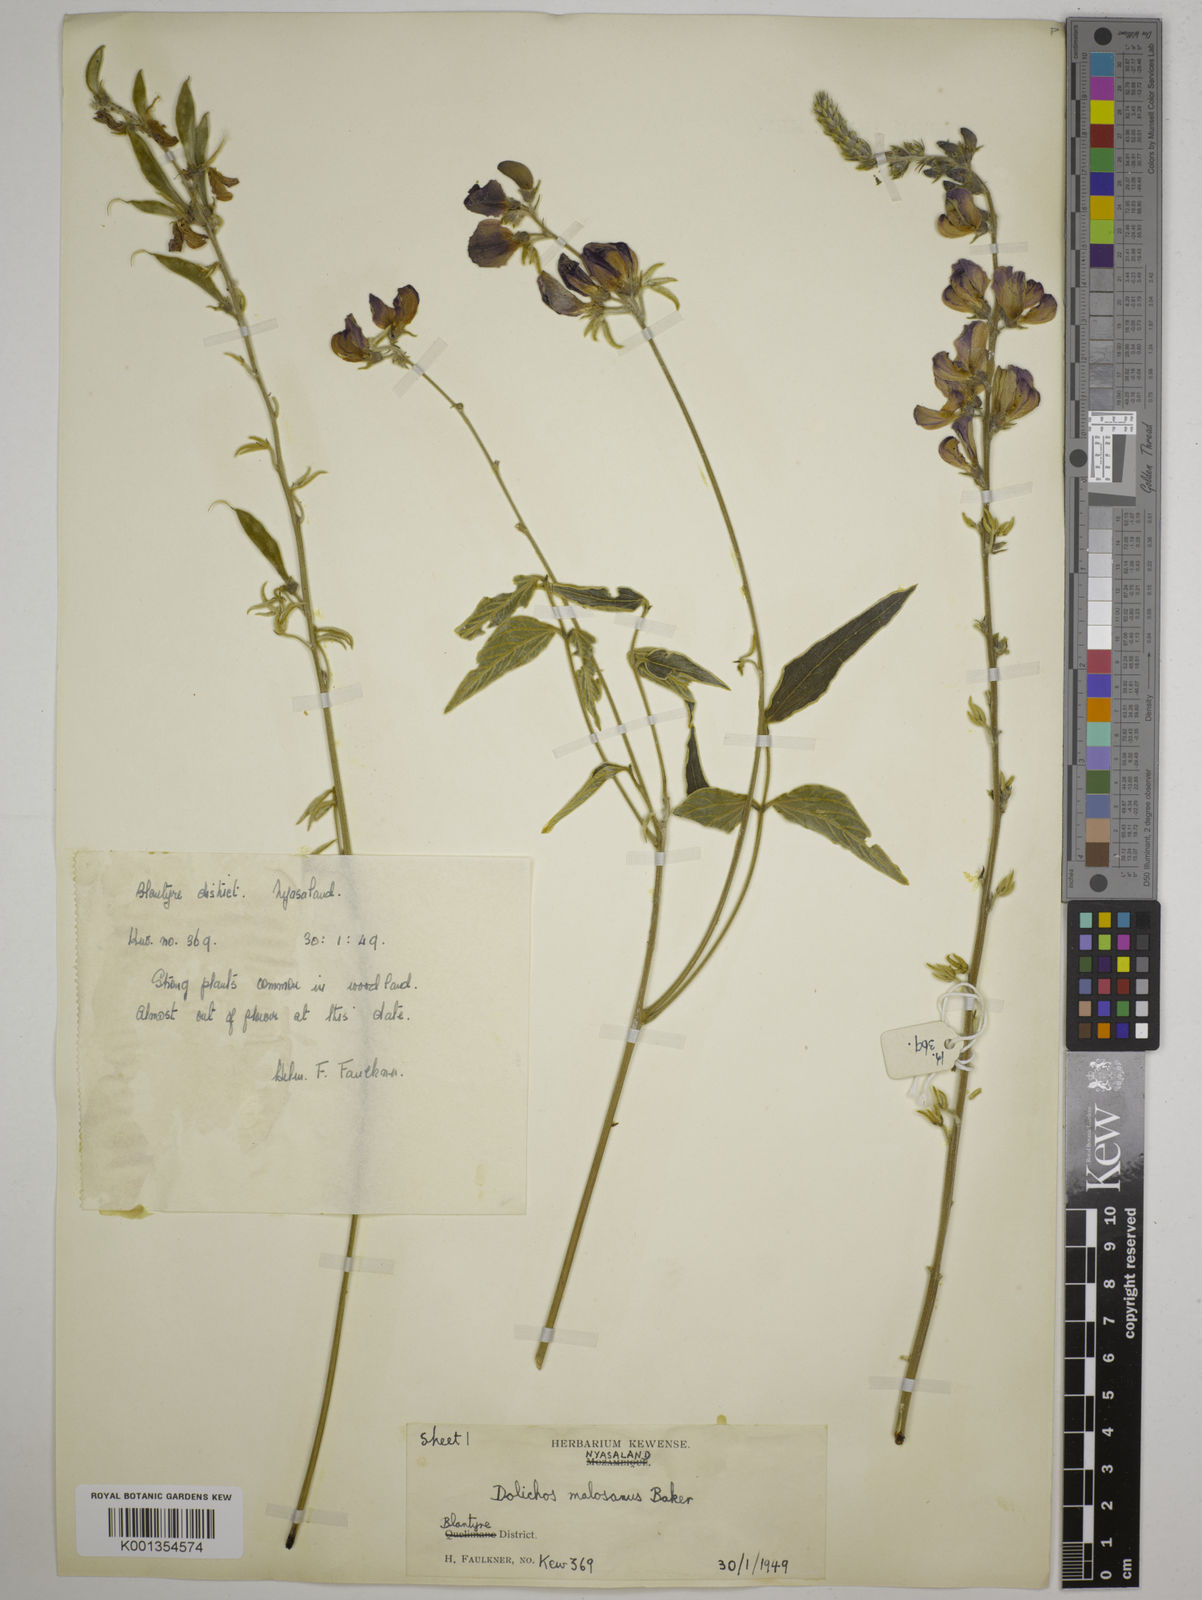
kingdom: Plantae
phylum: Tracheophyta
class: Magnoliopsida
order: Fabales
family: Fabaceae
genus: Dolichos
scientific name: Dolichos kilimandscharicus
